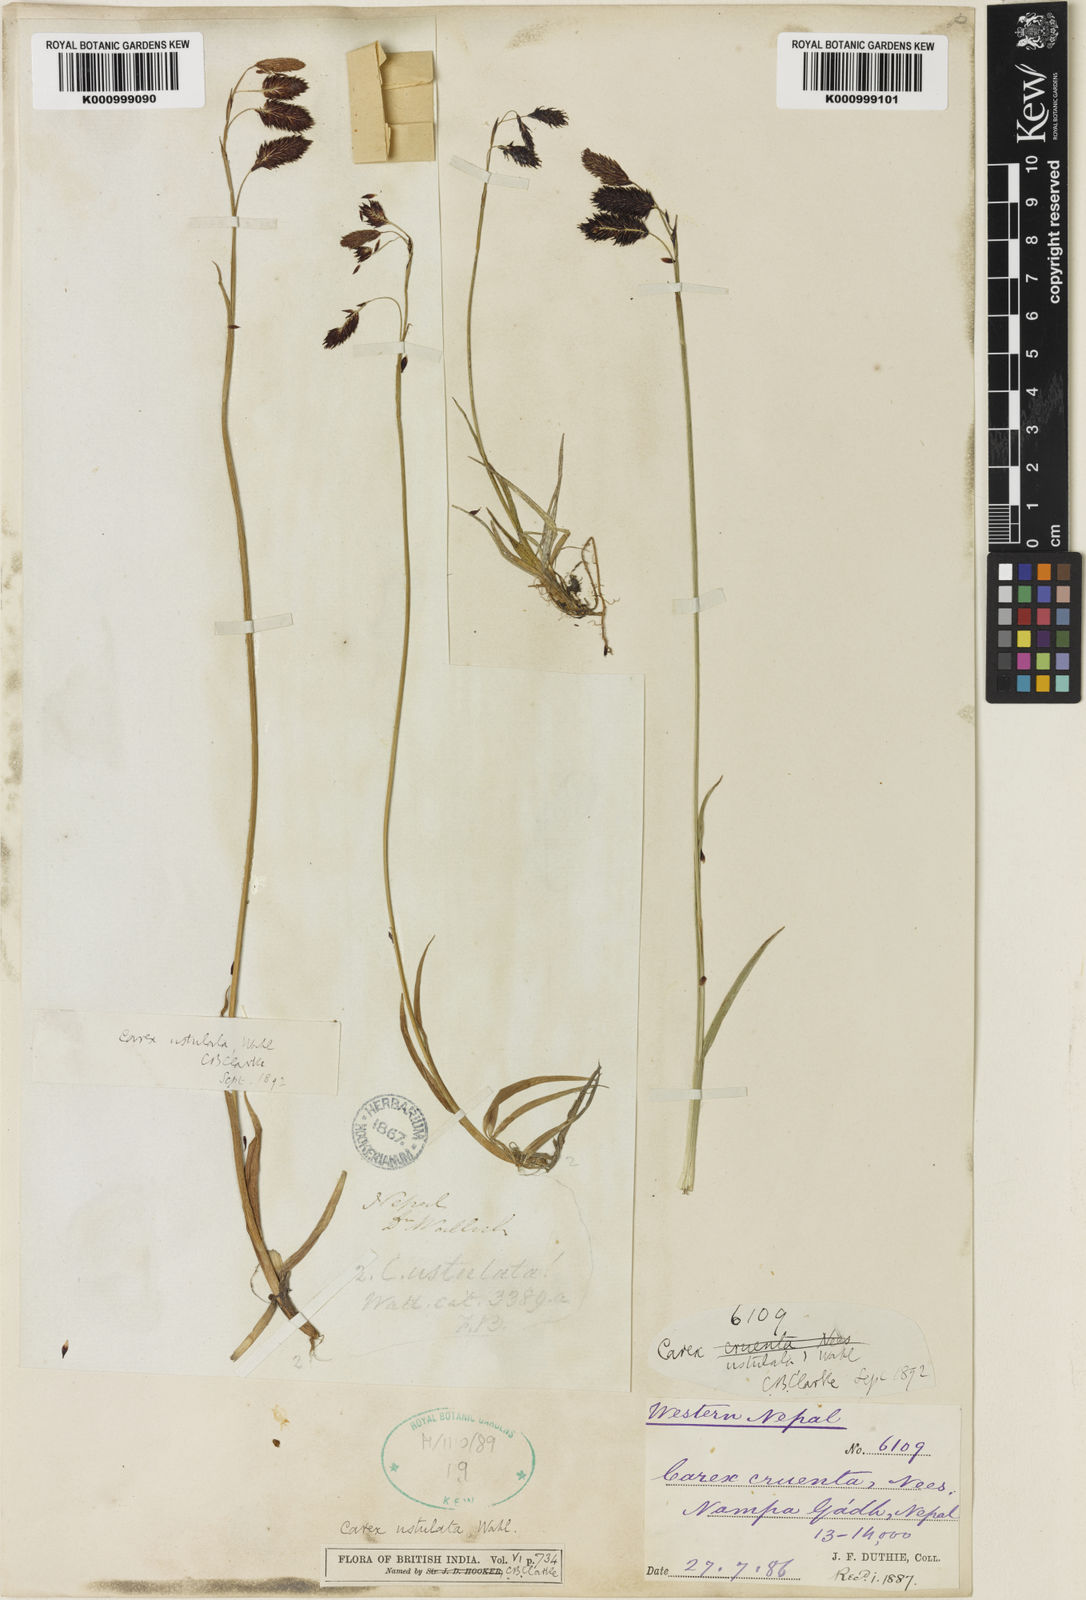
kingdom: Plantae
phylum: Tracheophyta
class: Liliopsida
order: Poales
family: Cyperaceae
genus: Carex
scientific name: Carex atrofusca
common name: Scorched alpine-sedge
